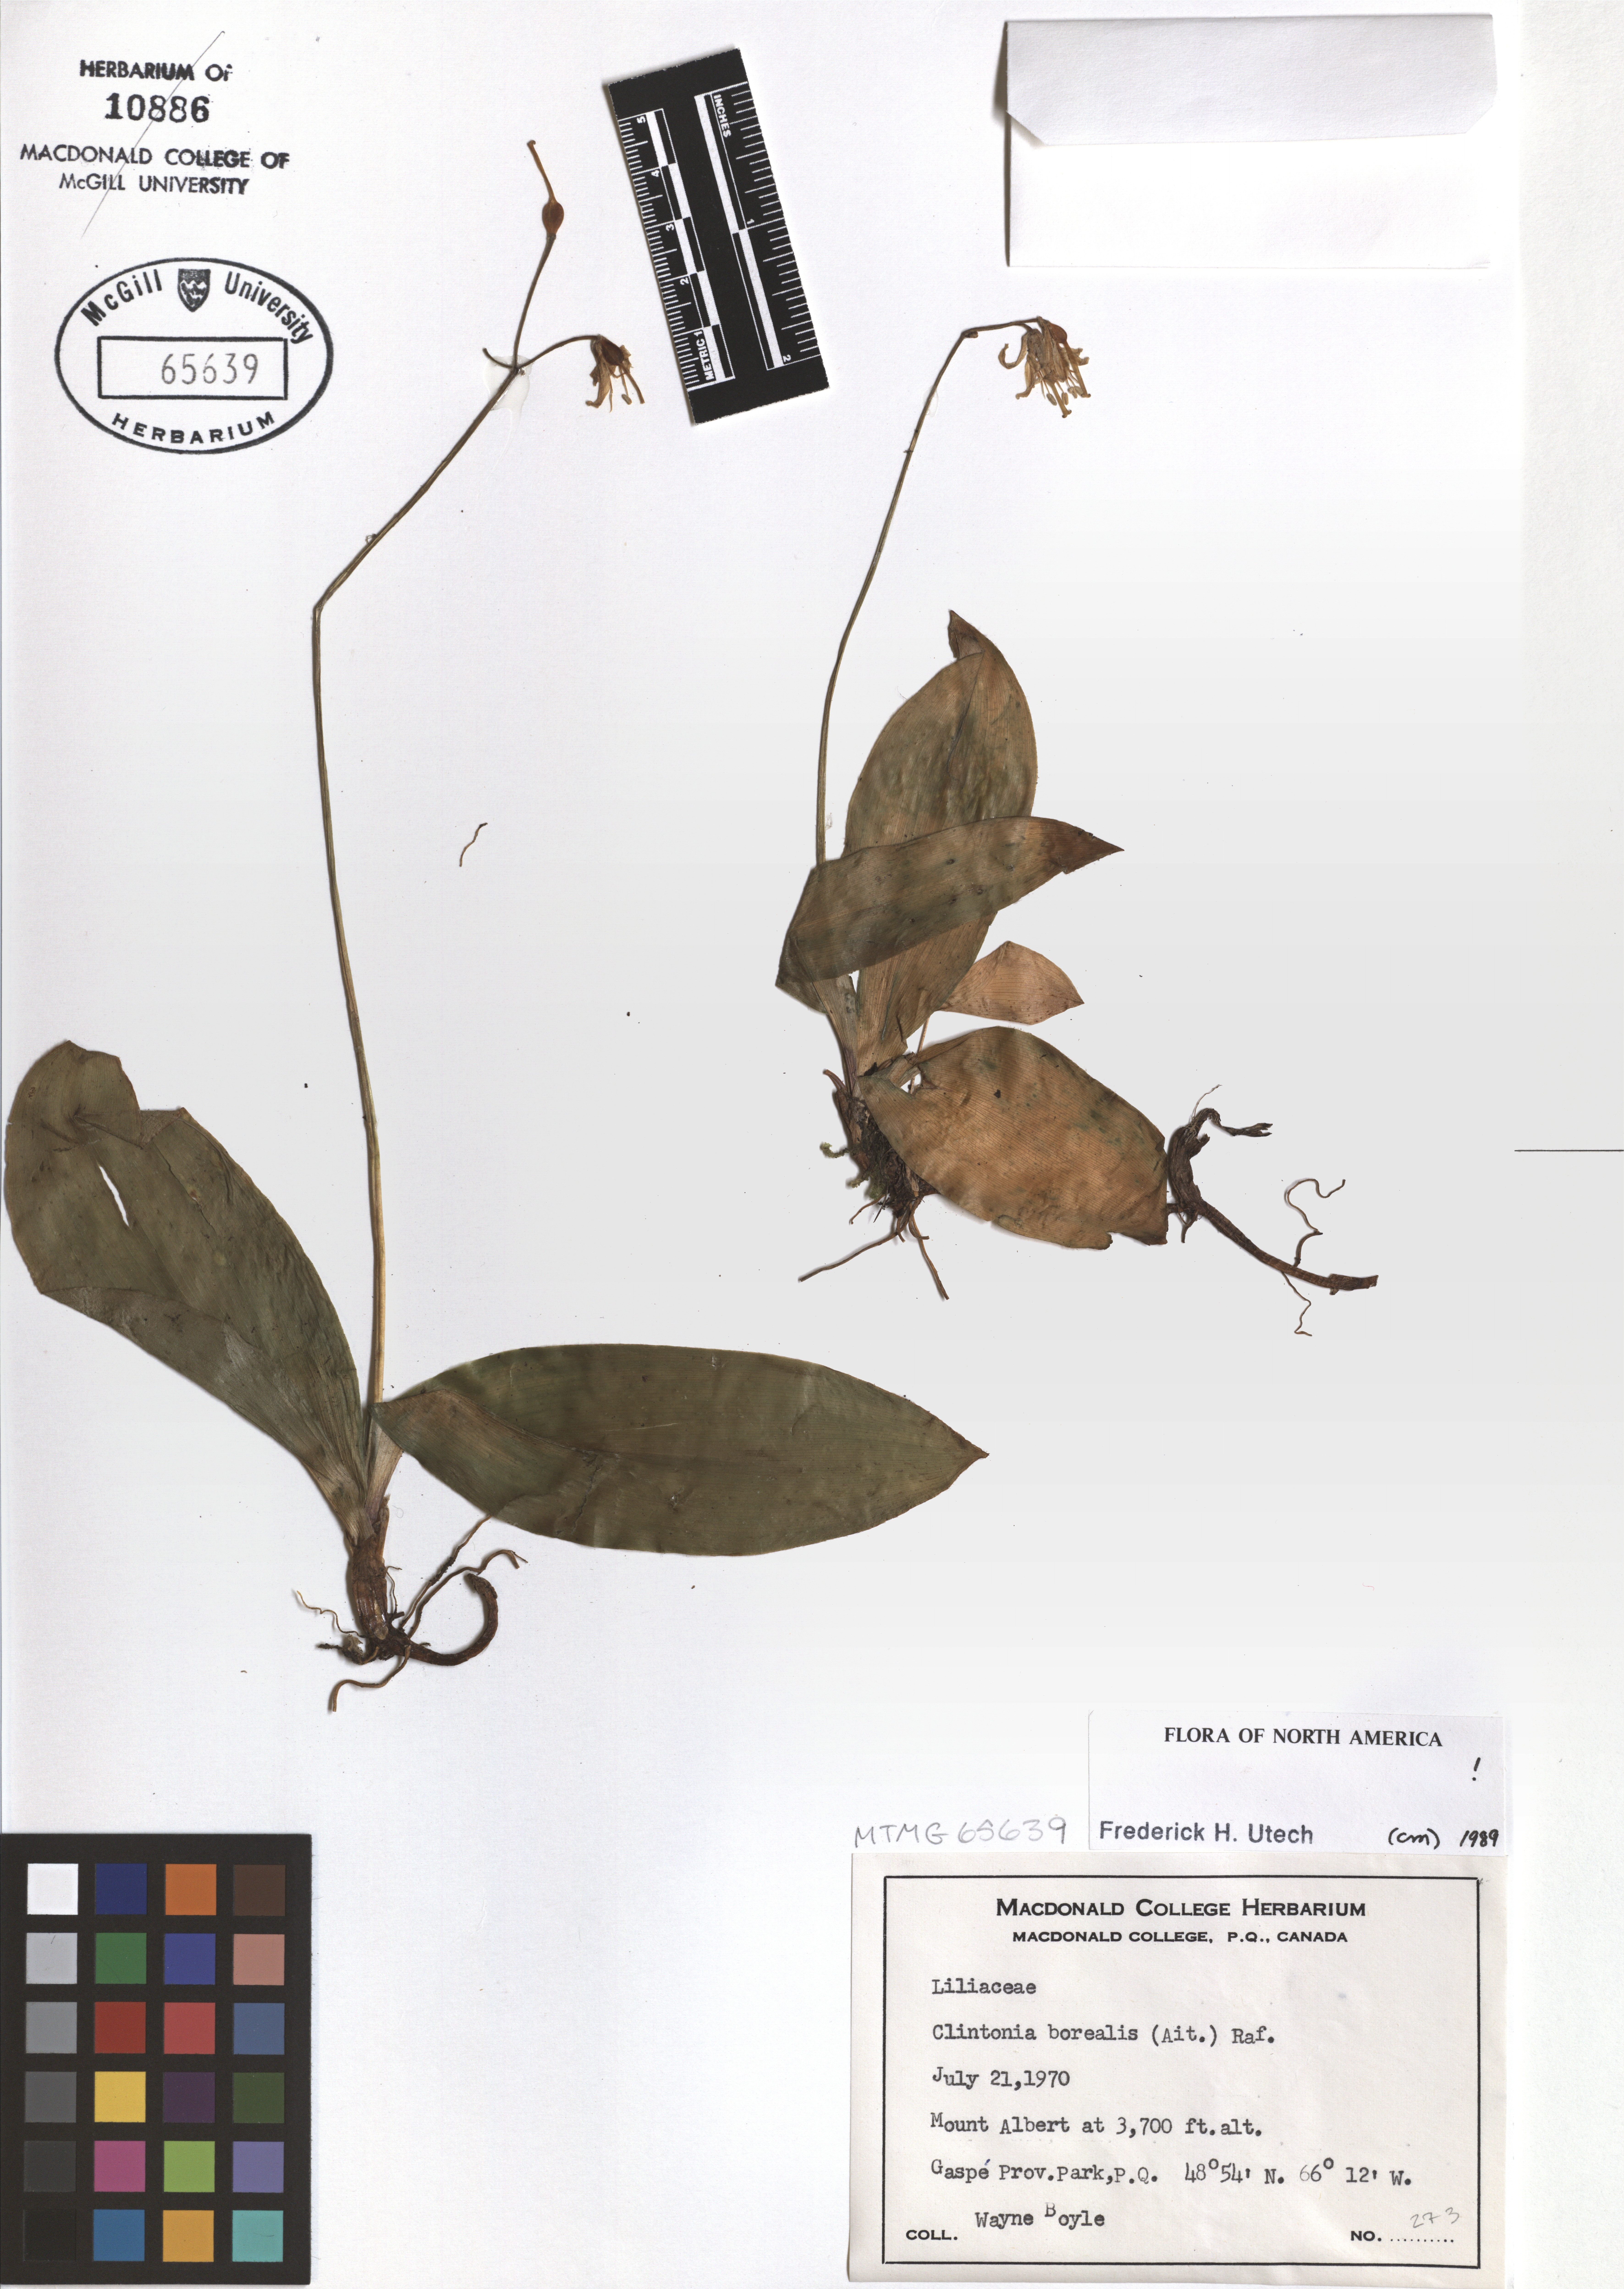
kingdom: Plantae
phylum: Tracheophyta
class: Liliopsida
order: Liliales
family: Liliaceae
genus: Clintonia
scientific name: Clintonia borealis
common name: Yellow clintonia
